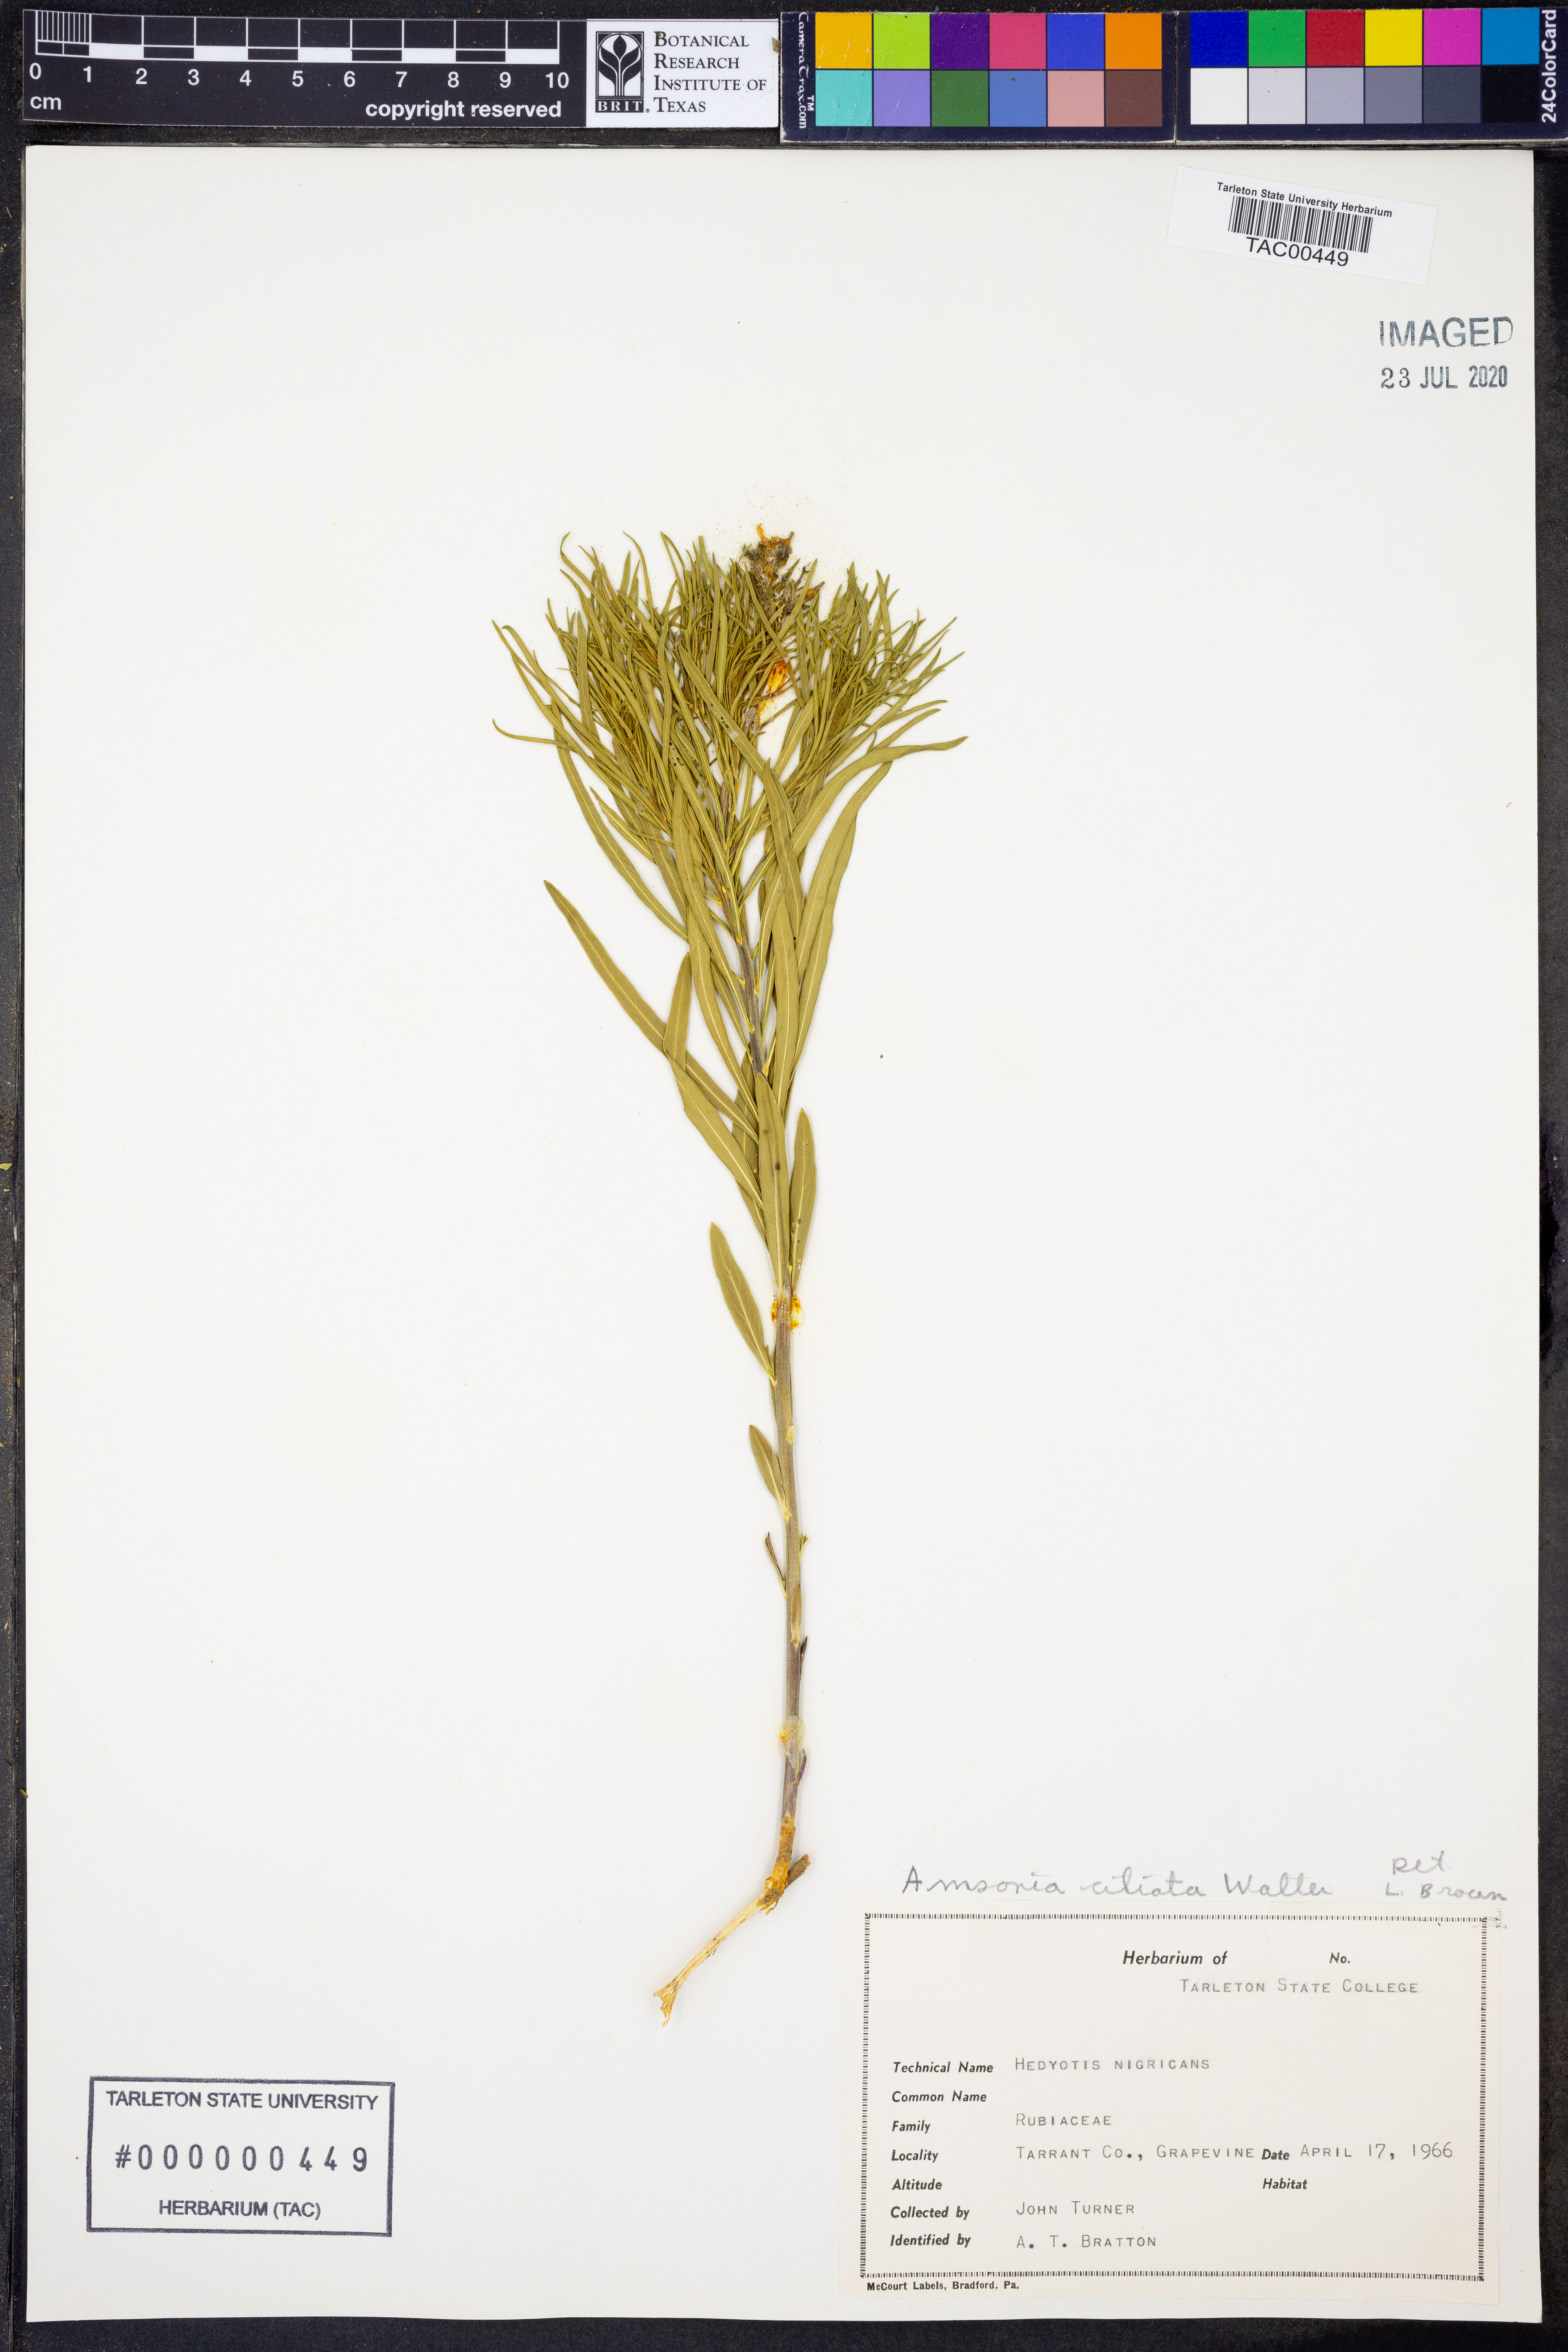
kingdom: Plantae
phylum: Tracheophyta
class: Magnoliopsida
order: Gentianales
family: Apocynaceae
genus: Amsonia
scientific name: Amsonia ciliata
